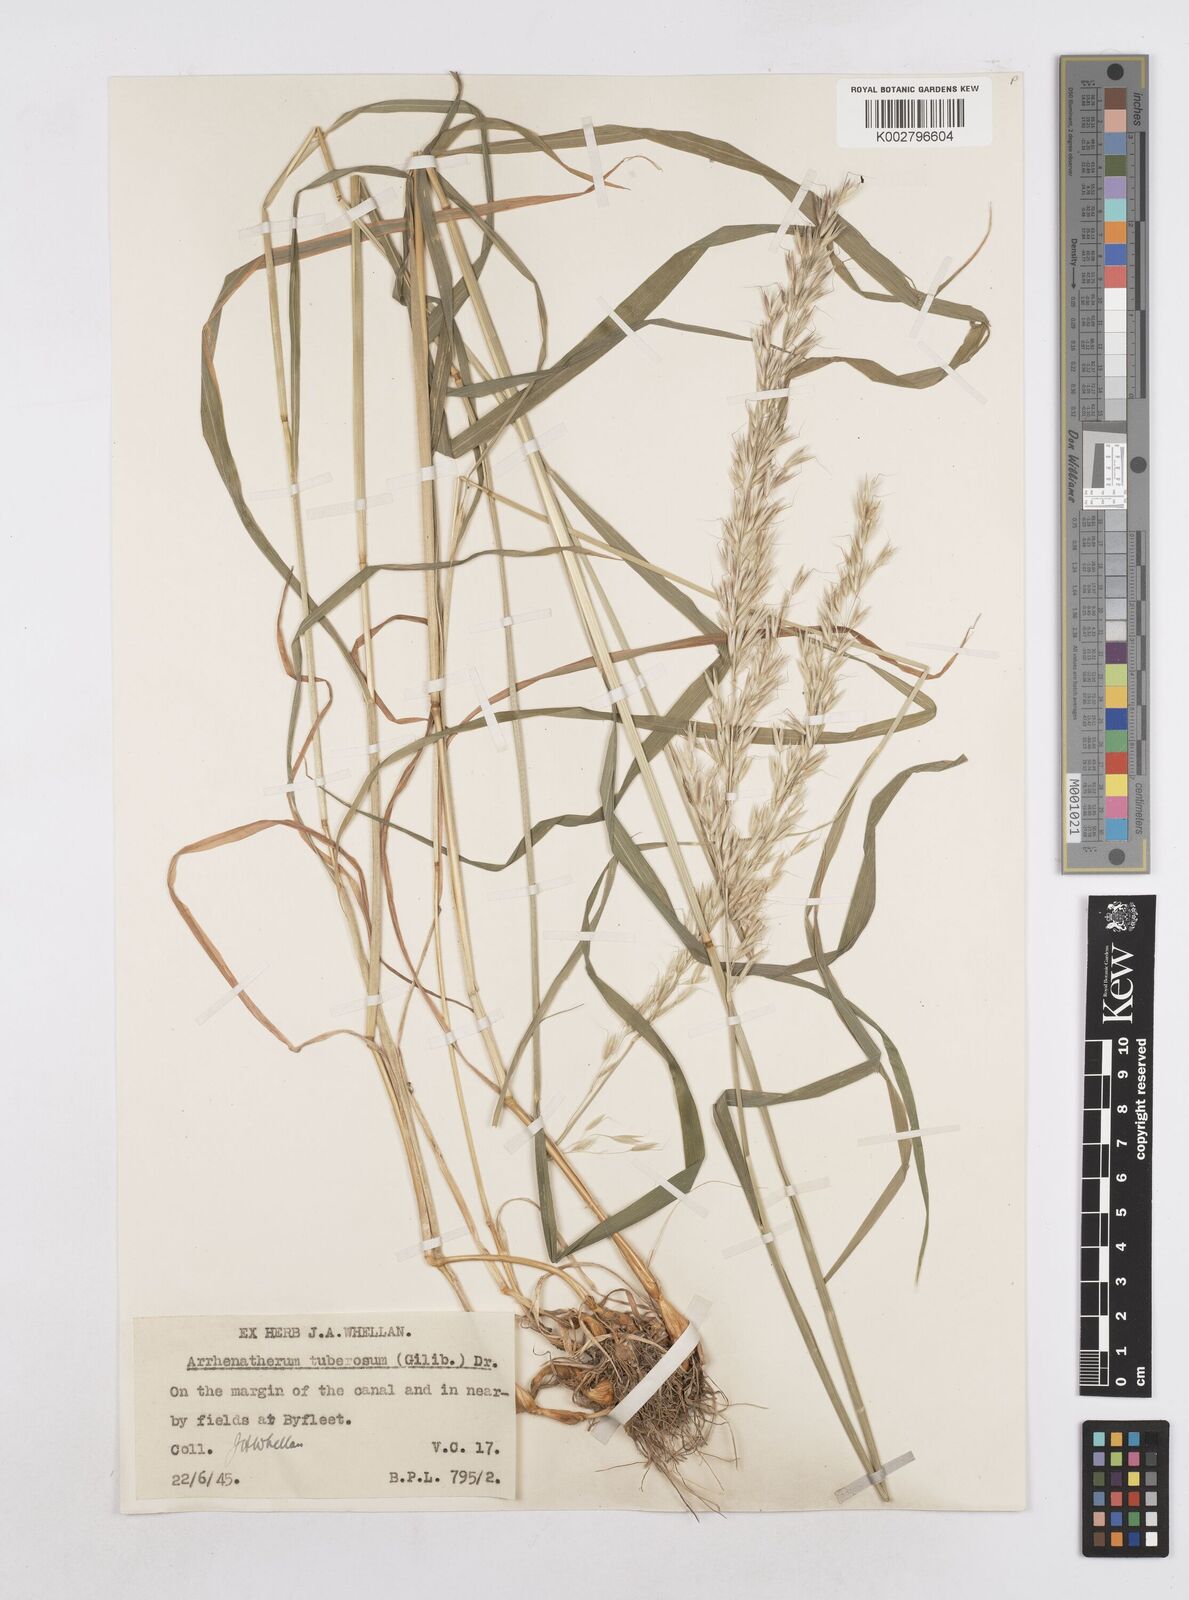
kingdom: Plantae
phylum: Tracheophyta
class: Liliopsida
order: Poales
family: Poaceae
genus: Arrhenatherum
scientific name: Arrhenatherum elatius
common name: Tall oatgrass
